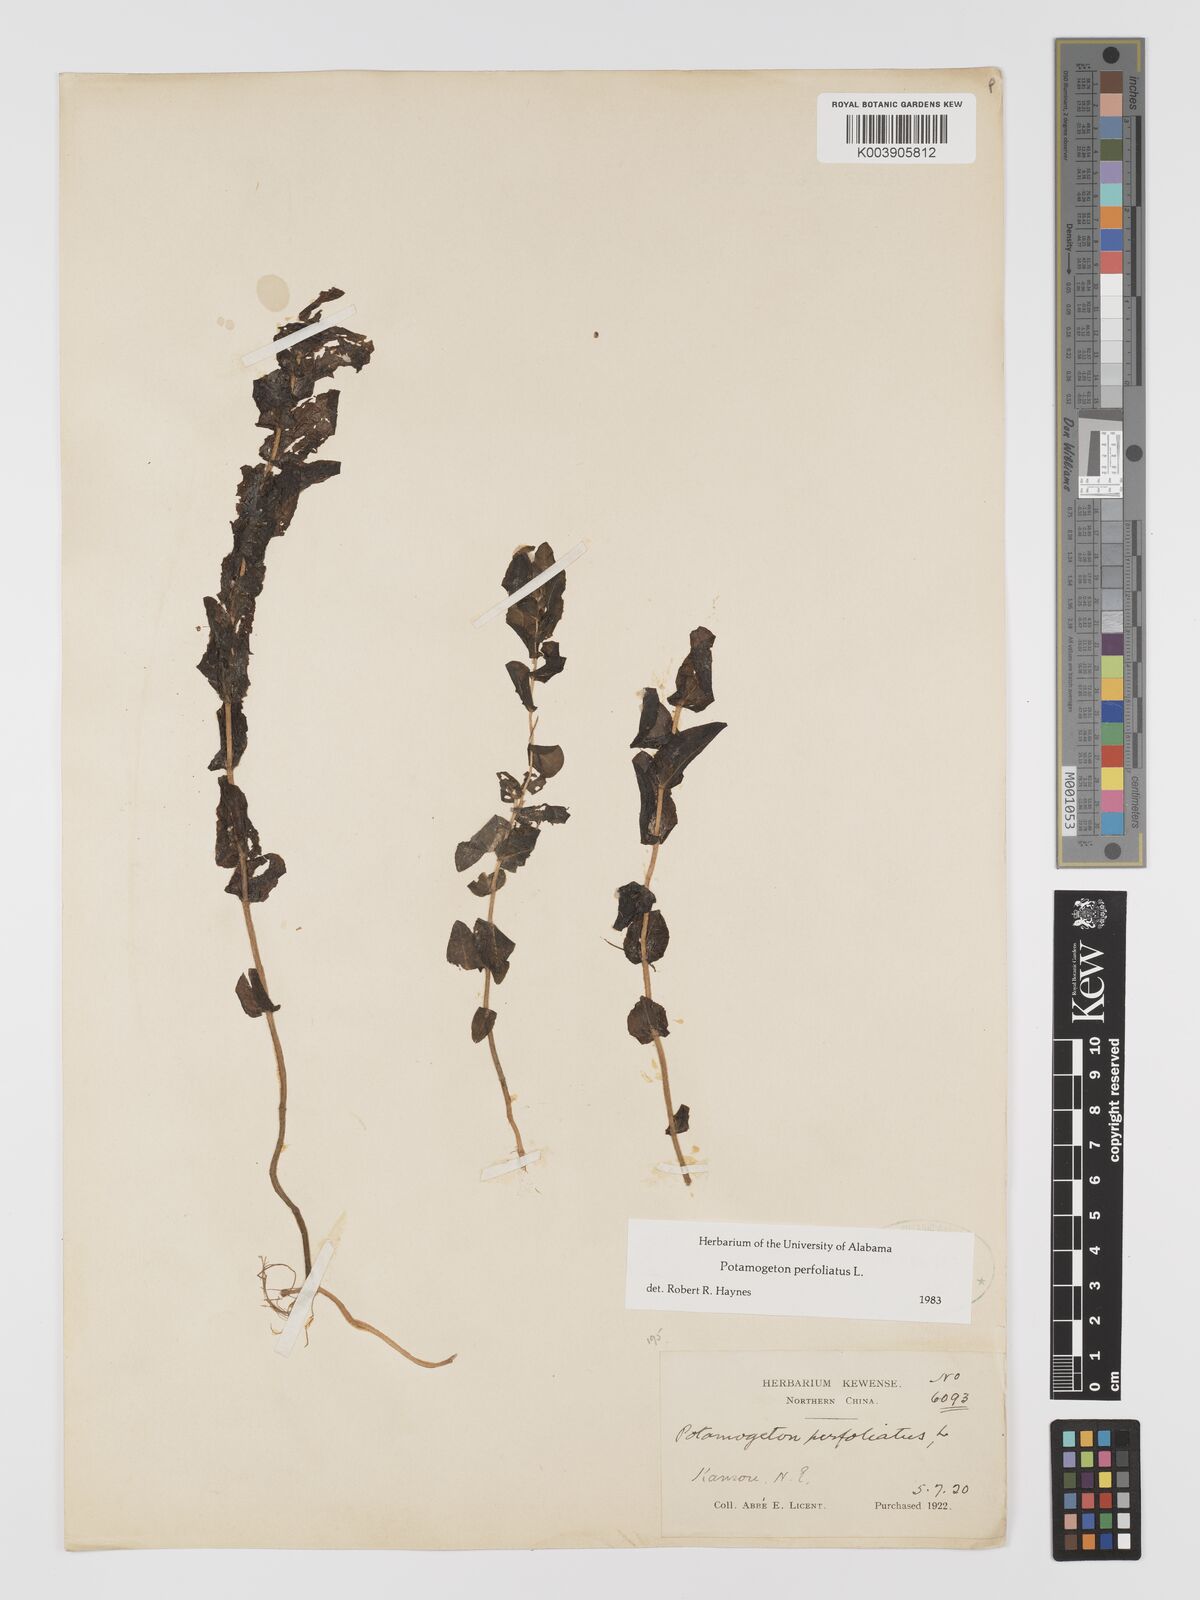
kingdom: Plantae
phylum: Tracheophyta
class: Liliopsida
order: Alismatales
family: Potamogetonaceae
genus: Potamogeton
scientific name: Potamogeton perfoliatus
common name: Perfoliate pondweed
